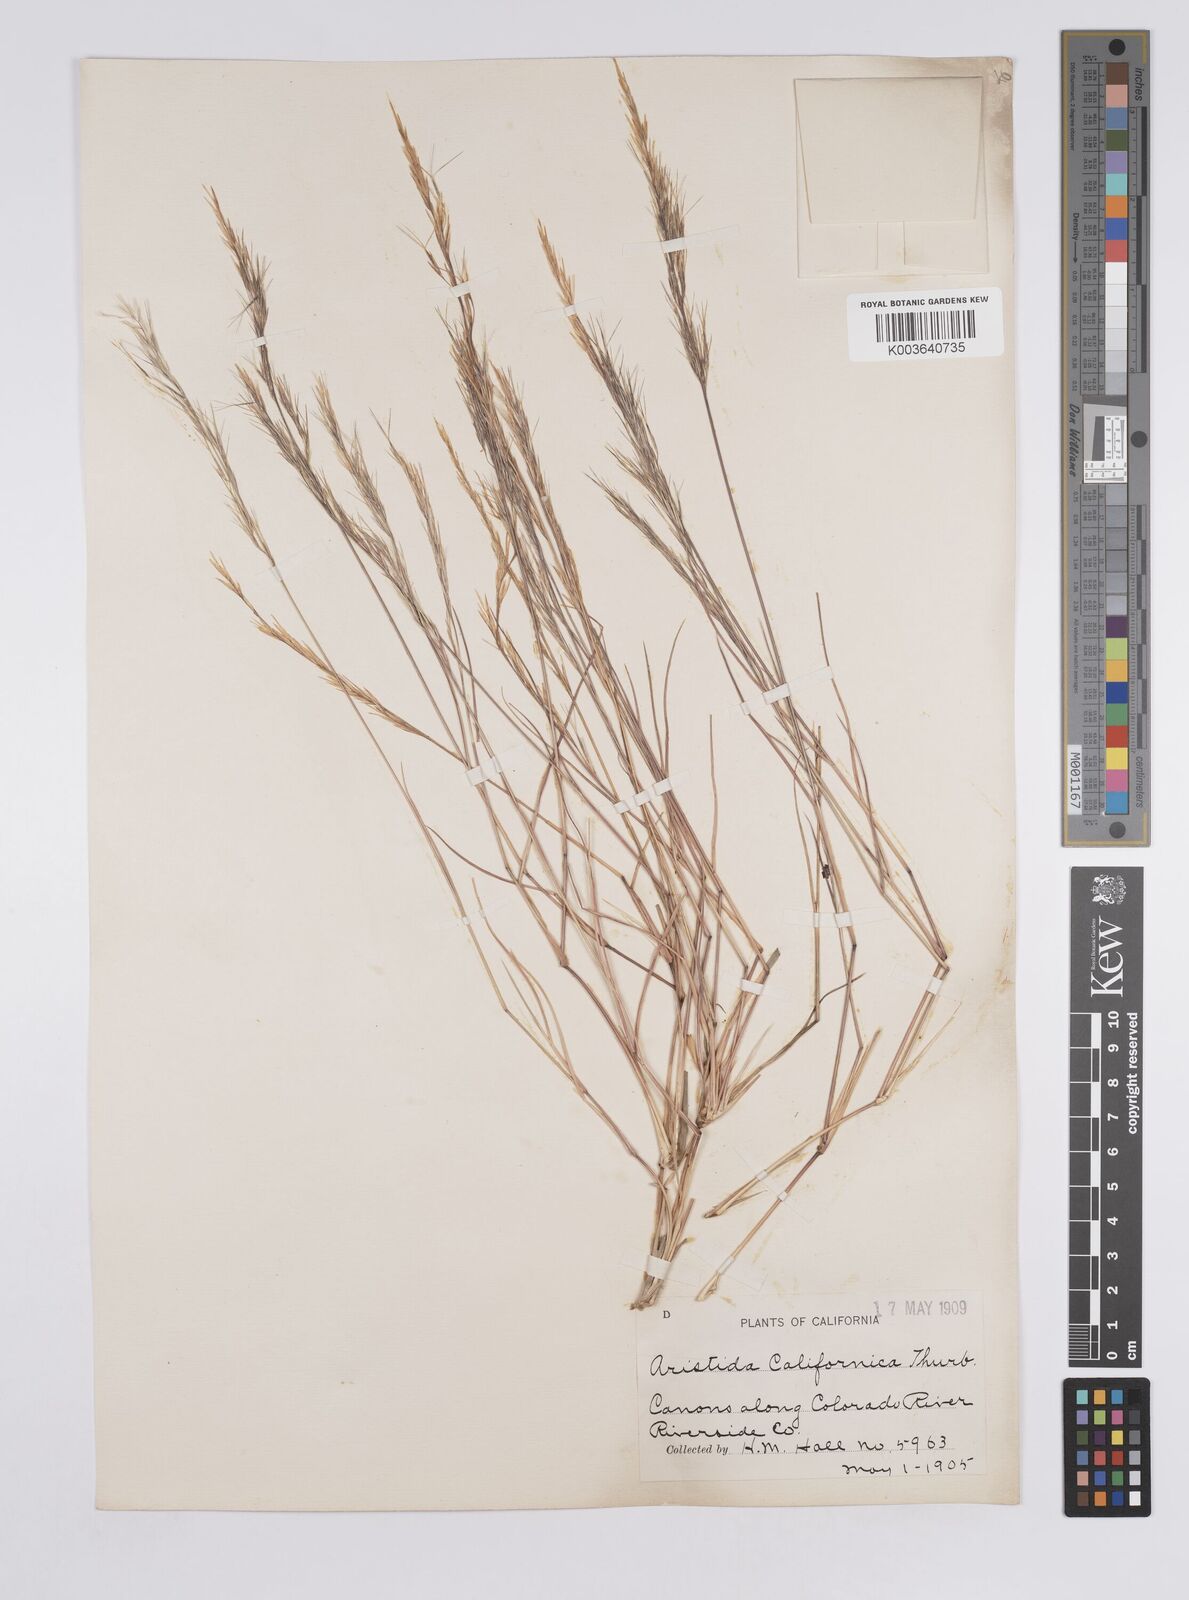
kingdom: Plantae
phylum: Tracheophyta
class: Liliopsida
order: Poales
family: Poaceae
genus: Aristida
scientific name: Aristida adscensionis
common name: Sixweeks threeawn
